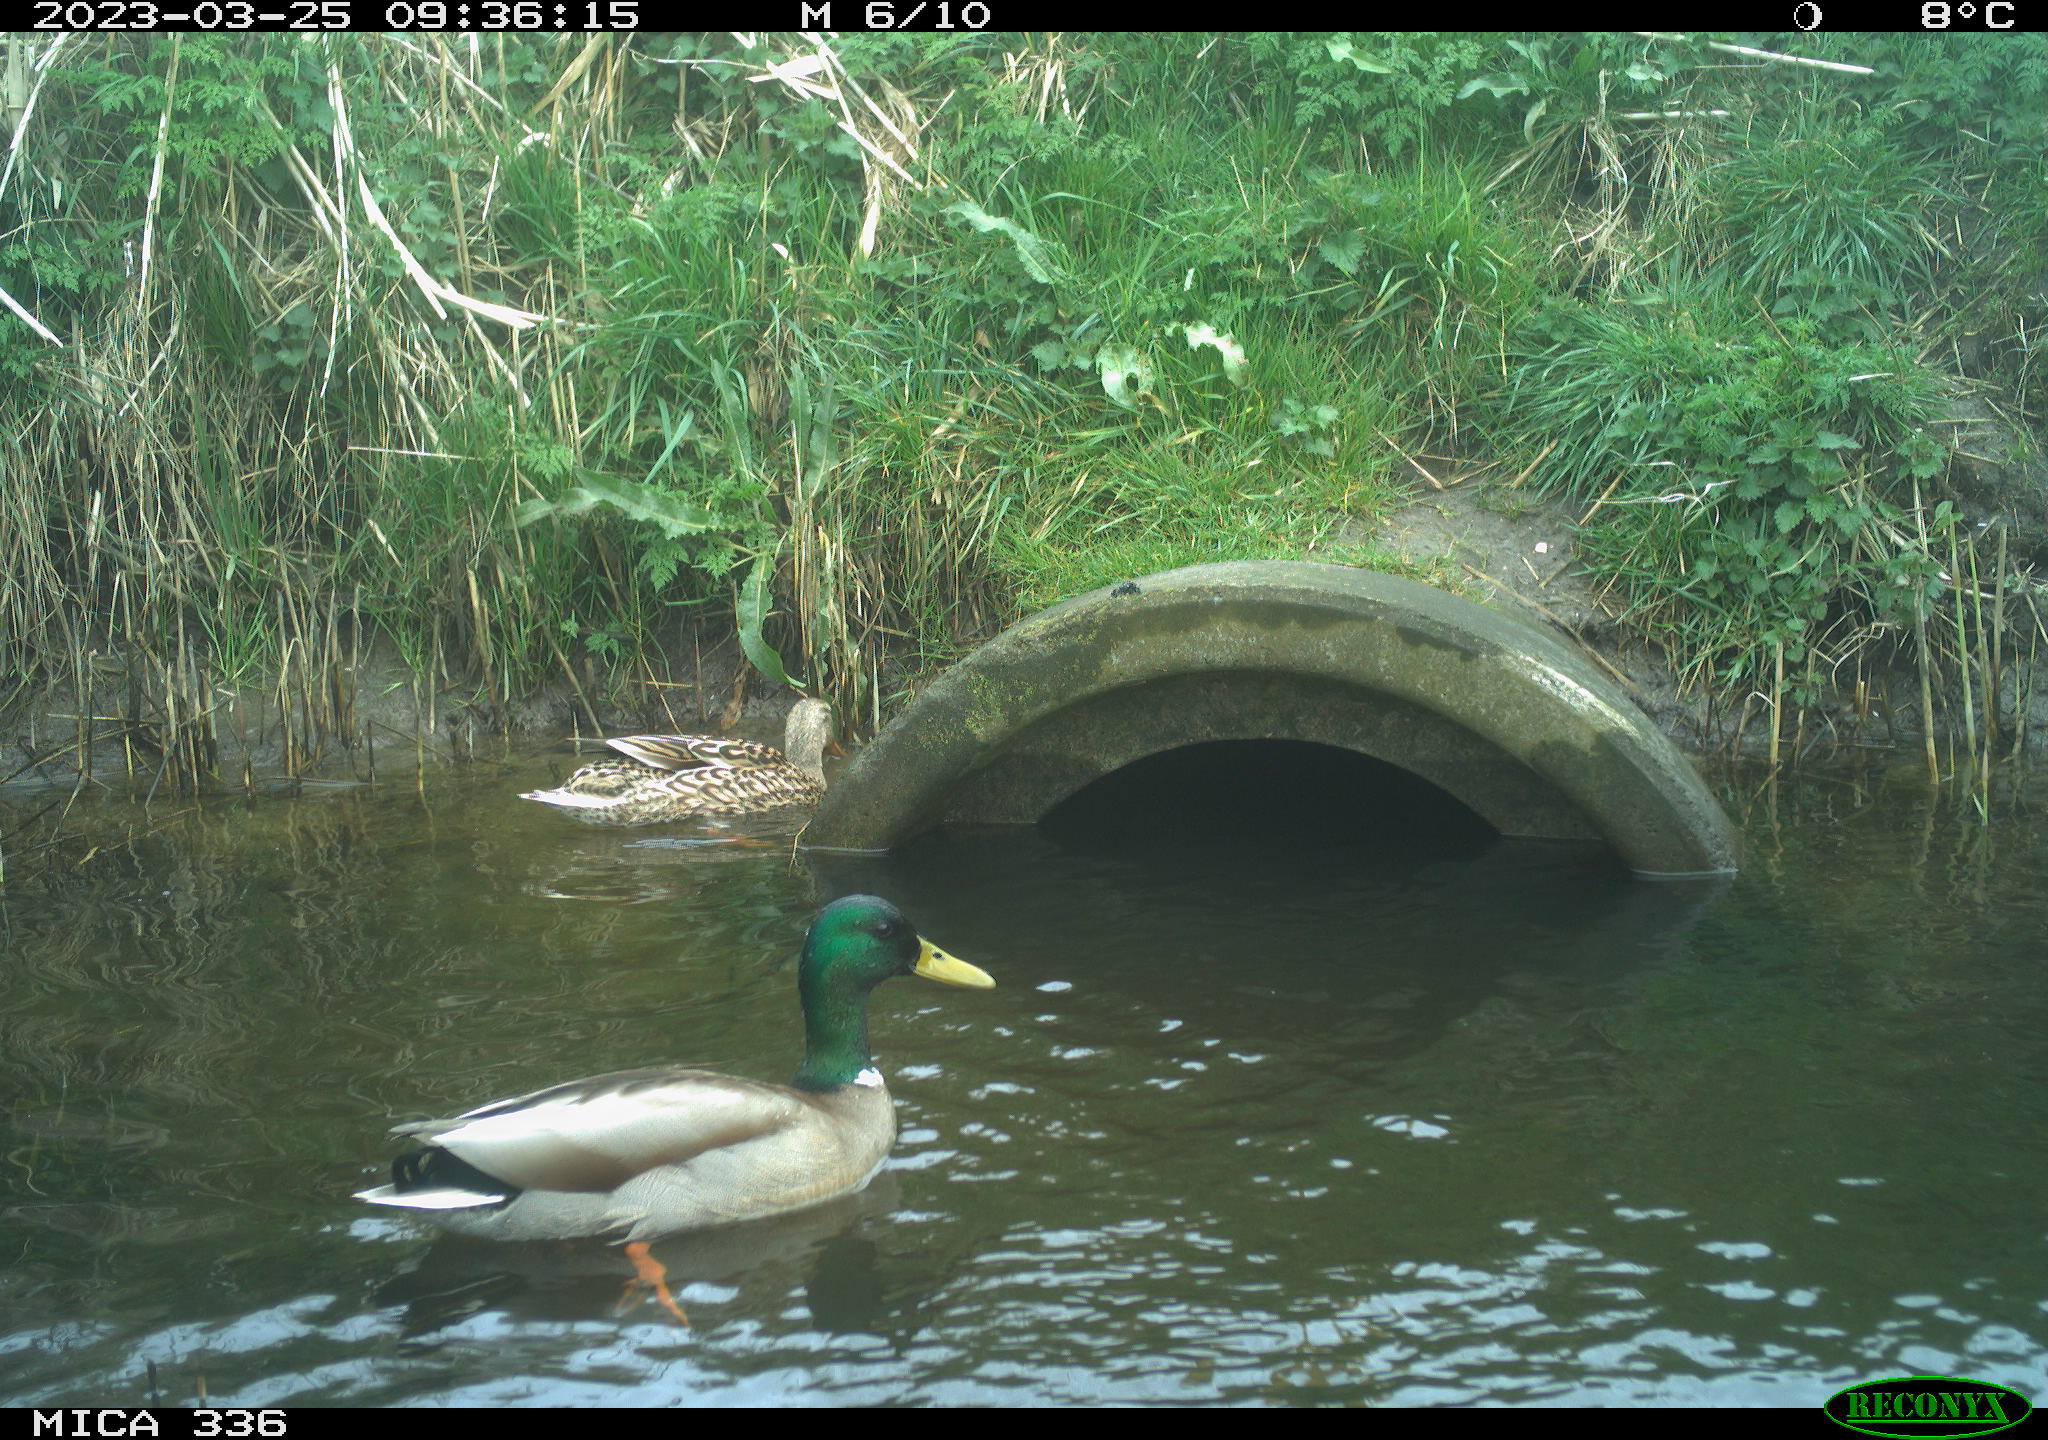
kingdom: Animalia
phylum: Chordata
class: Aves
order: Anseriformes
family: Anatidae
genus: Anas
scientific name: Anas
